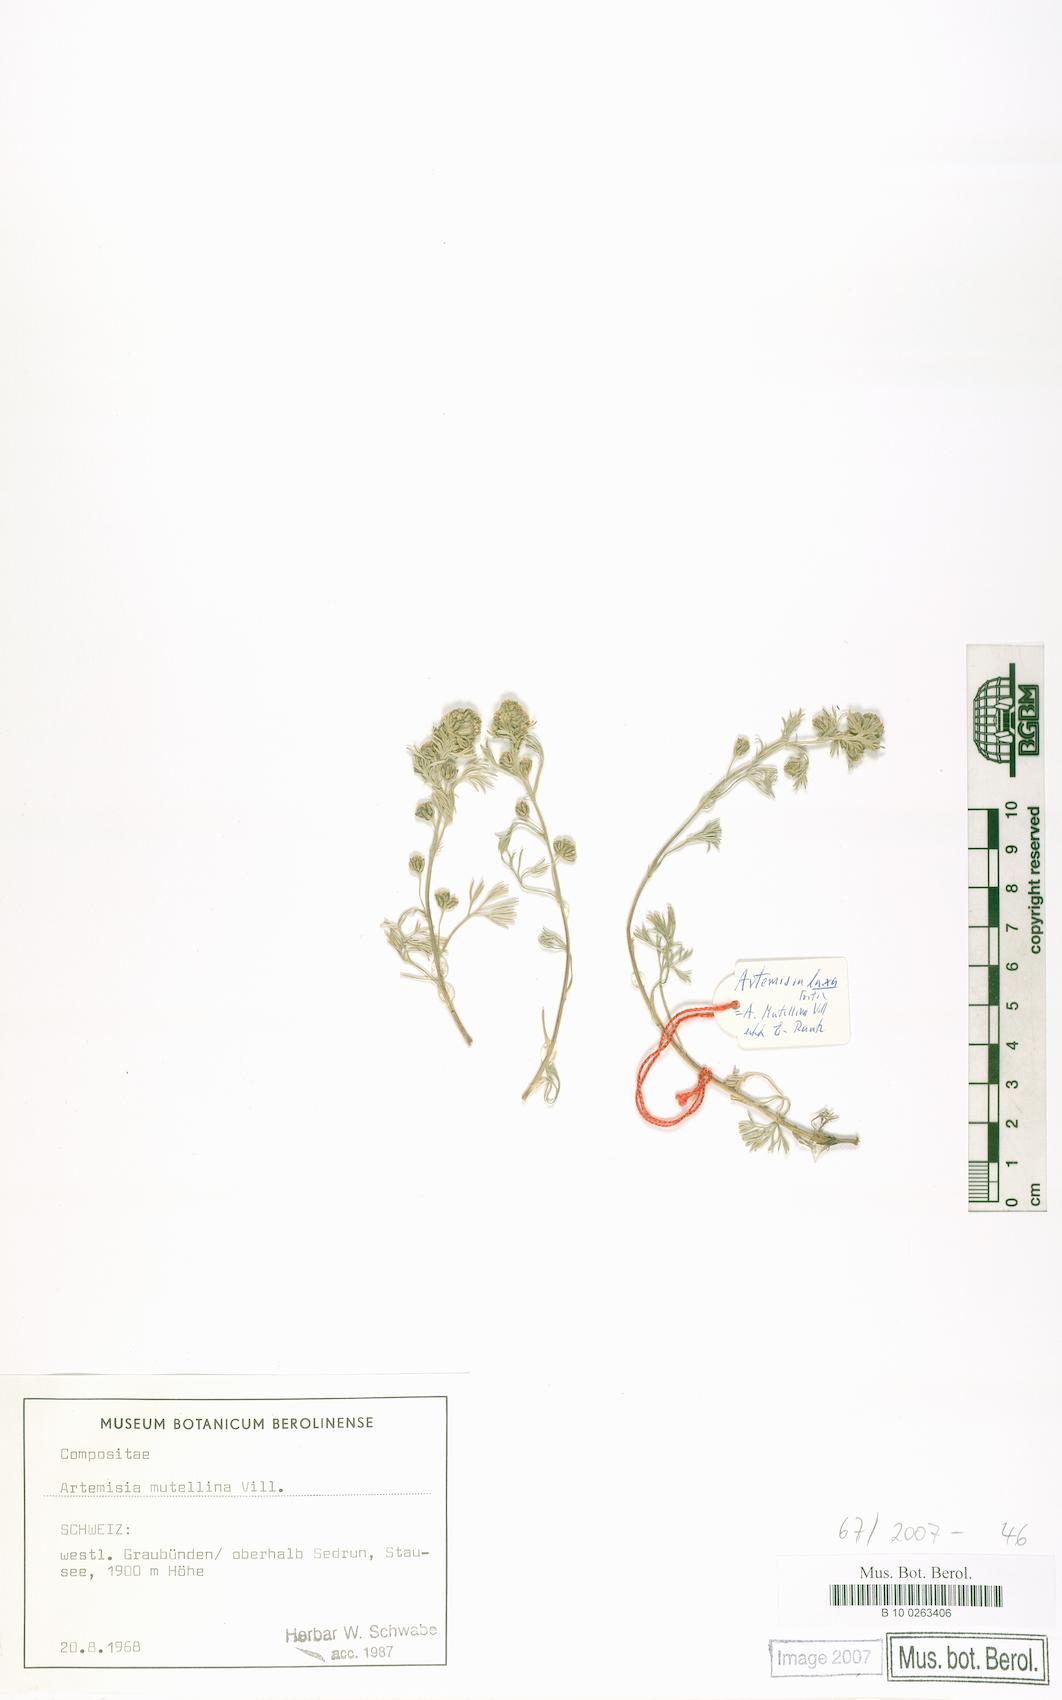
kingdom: Plantae
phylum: Tracheophyta
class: Magnoliopsida
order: Asterales
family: Asteraceae
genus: Artemisia
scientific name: Artemisia mutellina
